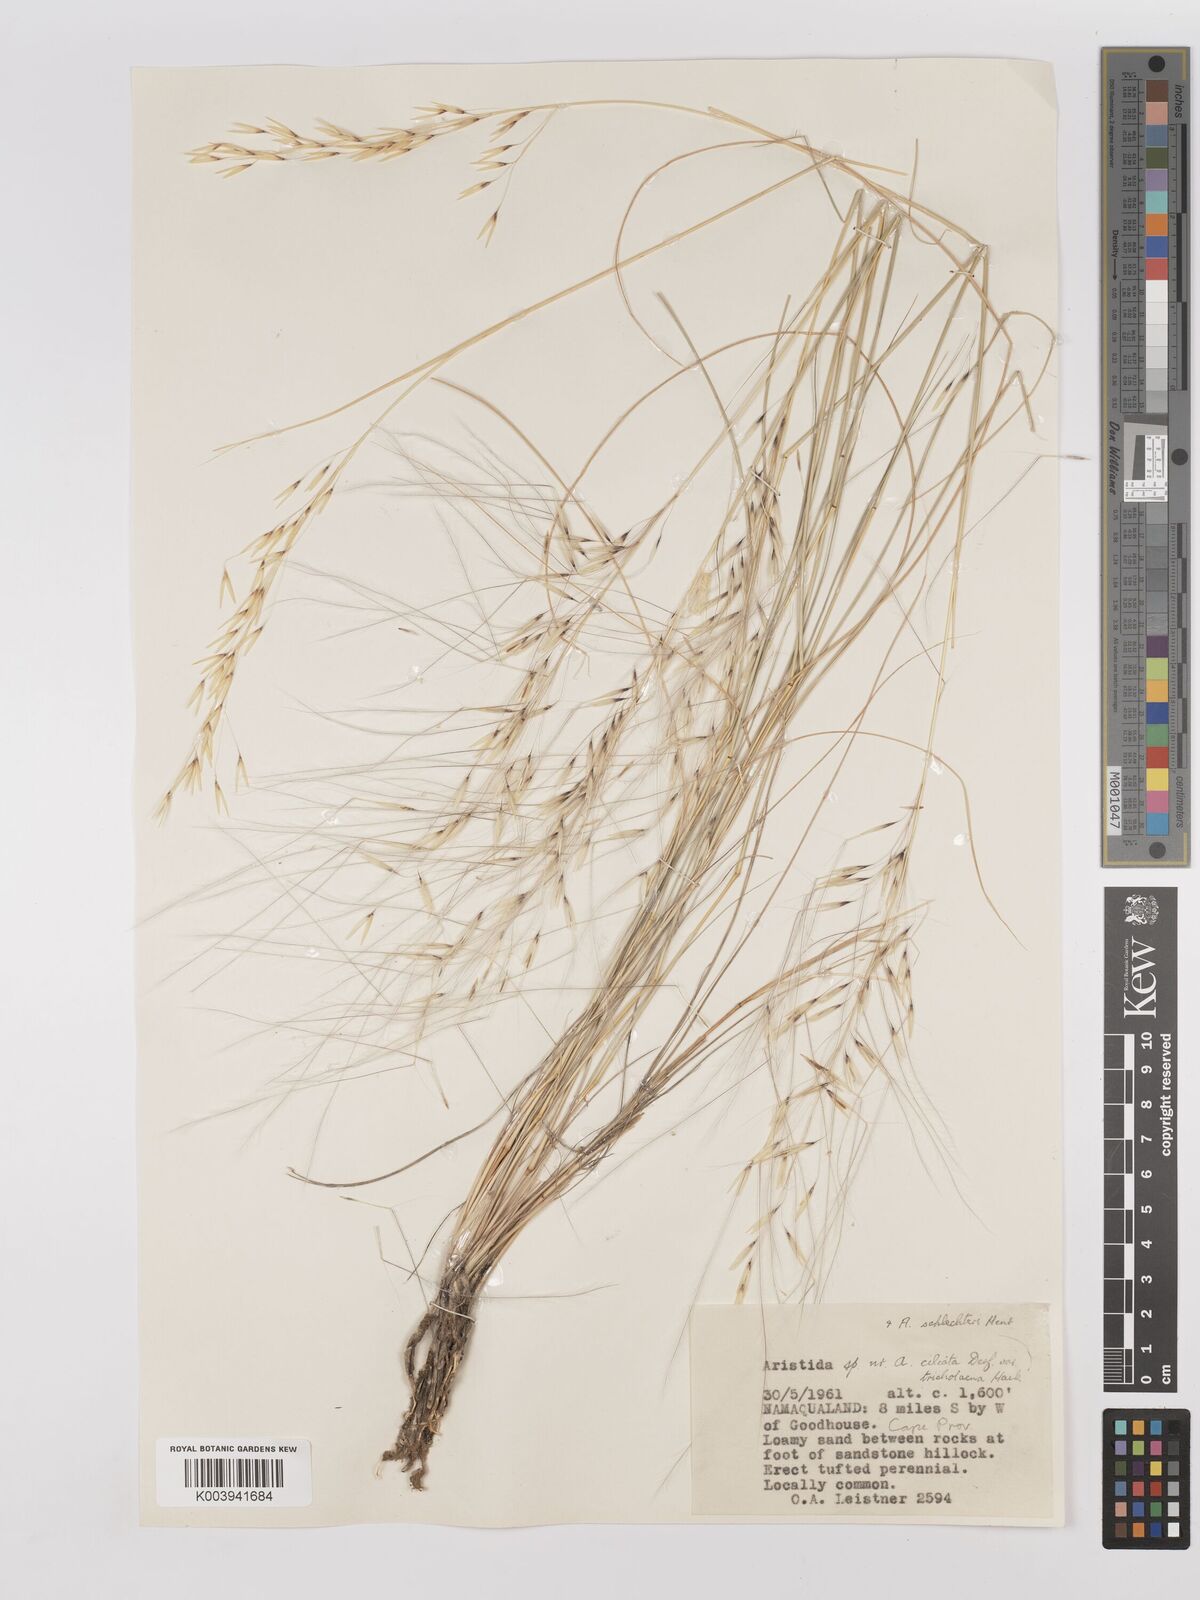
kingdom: Plantae
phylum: Tracheophyta
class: Liliopsida
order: Poales
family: Poaceae
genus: Stipagrostis
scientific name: Stipagrostis ciliata
